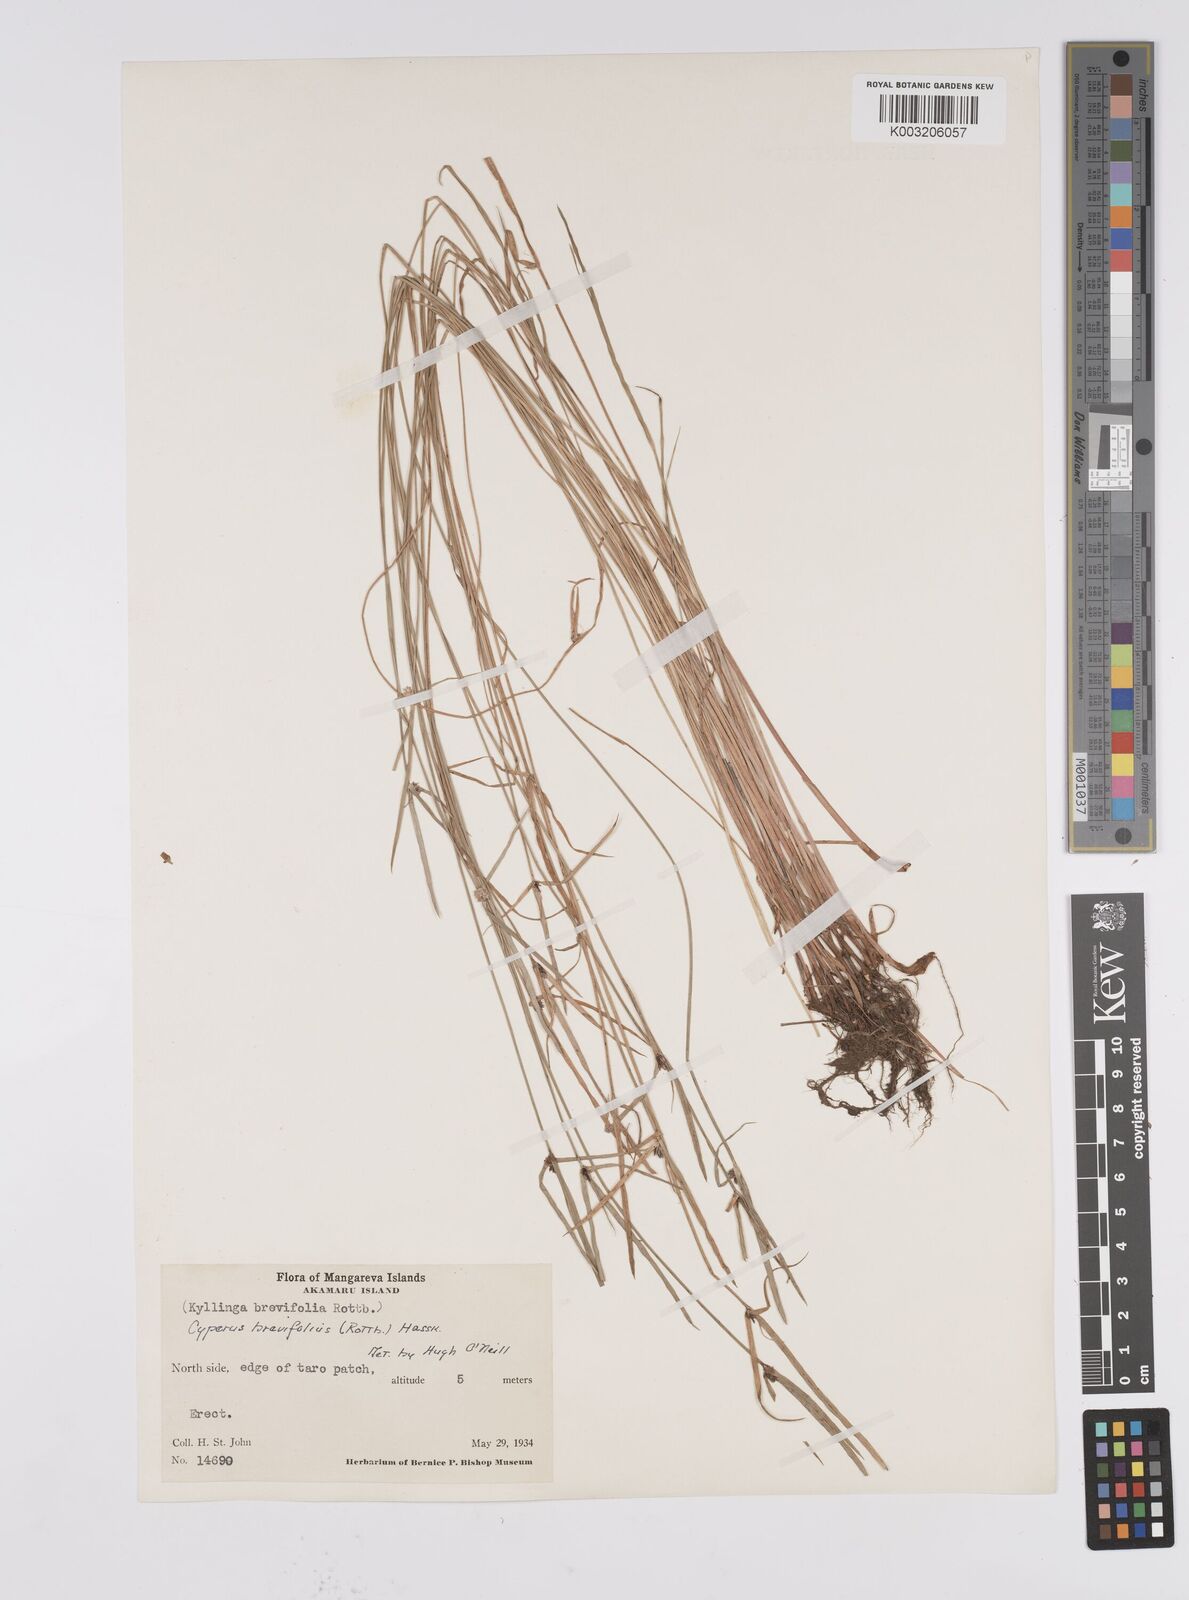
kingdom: Plantae
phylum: Tracheophyta
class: Liliopsida
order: Poales
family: Cyperaceae
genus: Cyperus
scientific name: Cyperus brevifolius
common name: Globe kyllinga
